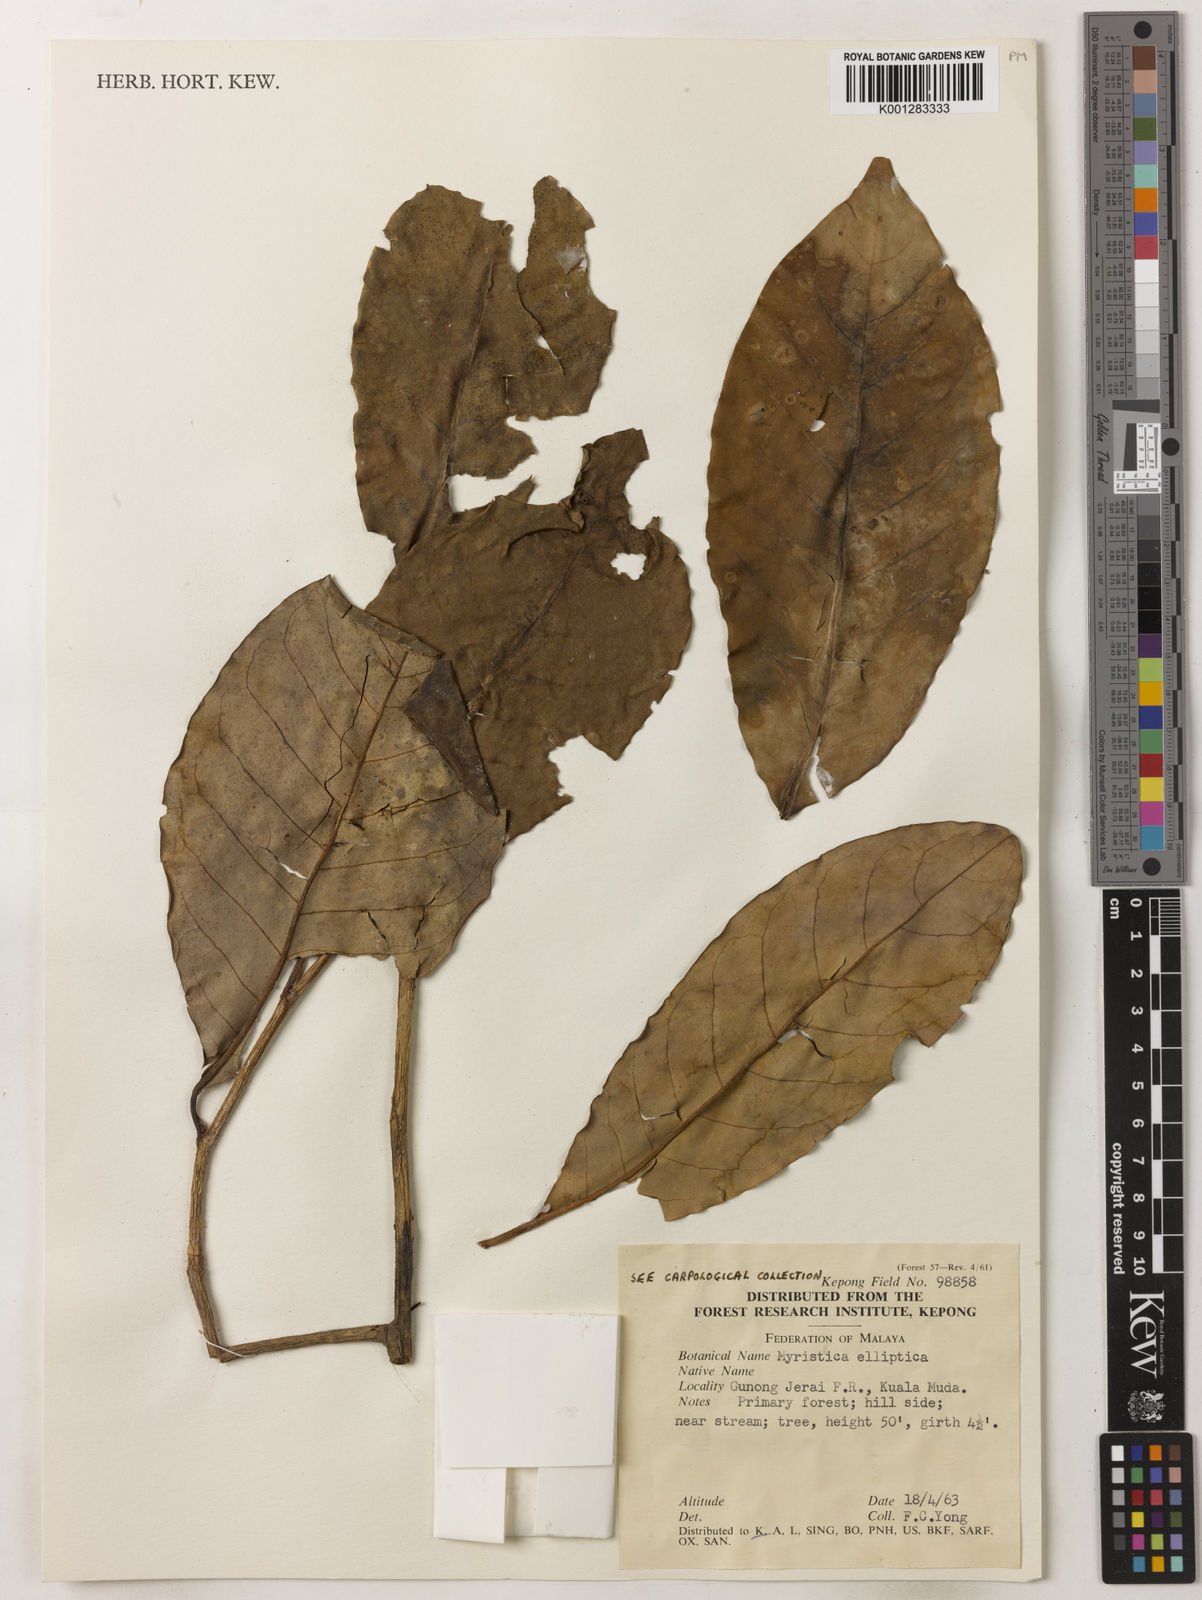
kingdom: Plantae
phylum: Tracheophyta
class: Magnoliopsida
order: Magnoliales
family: Myristicaceae
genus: Myristica
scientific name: Myristica elliptica
